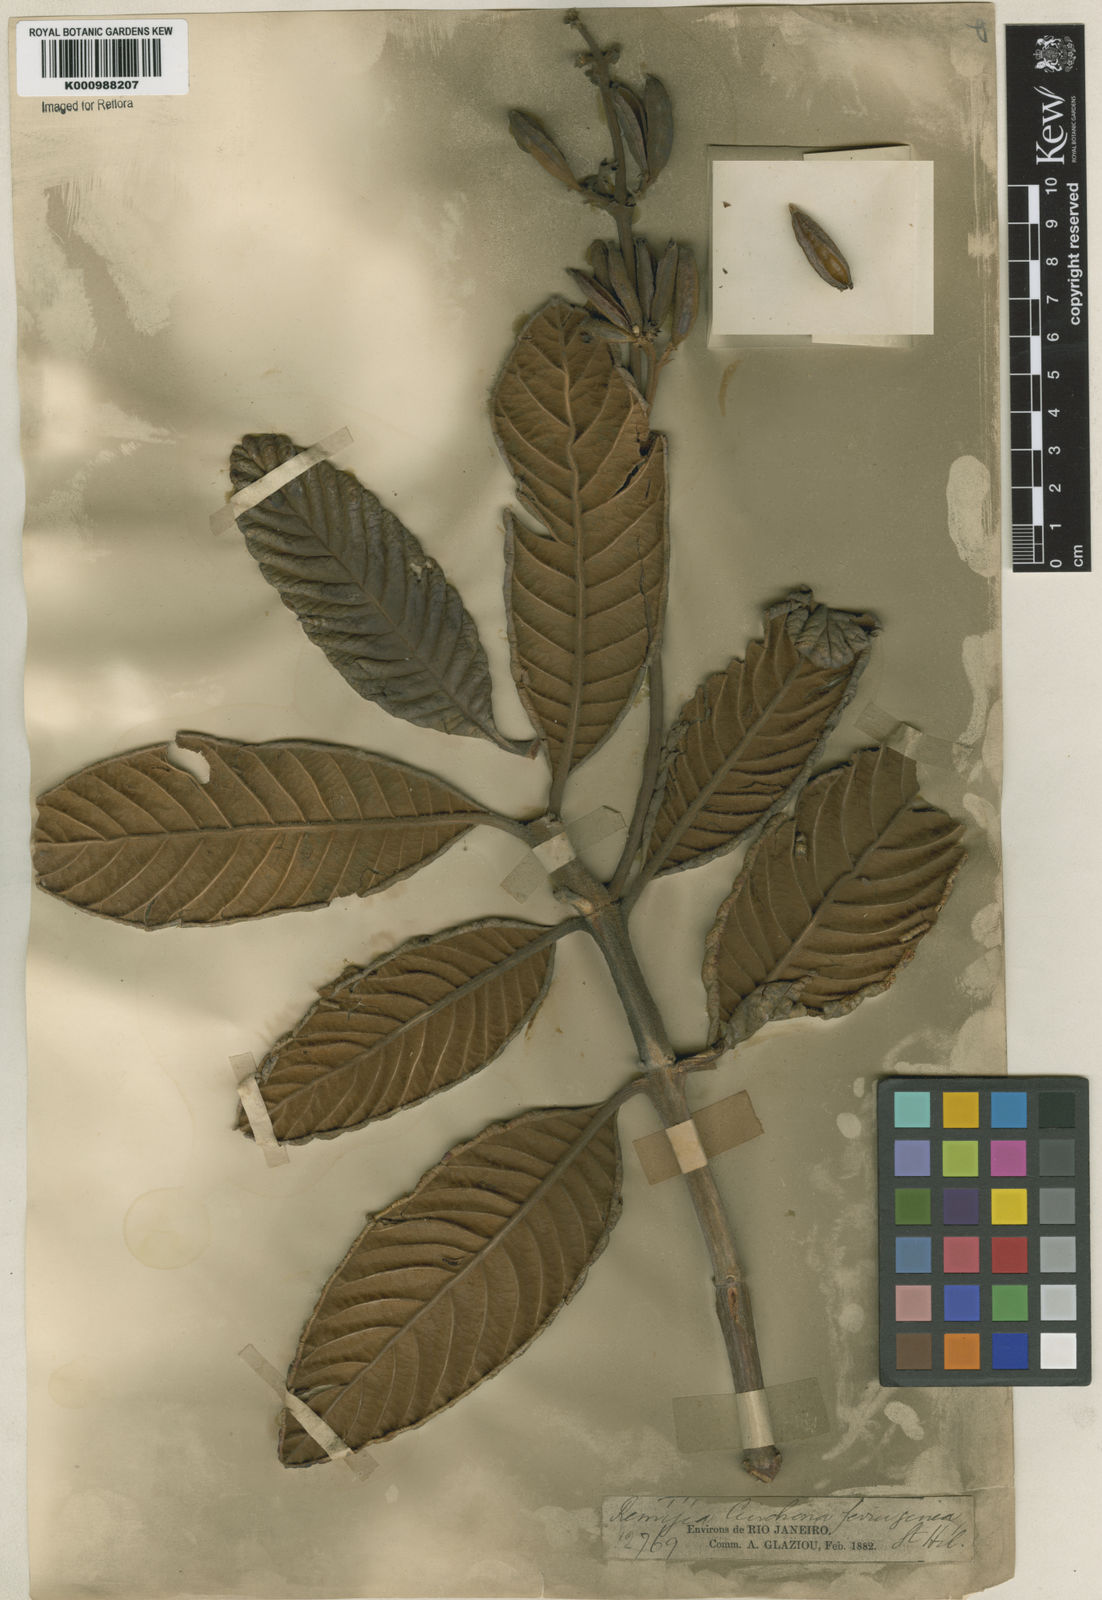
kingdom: Plantae
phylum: Tracheophyta
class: Magnoliopsida
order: Gentianales
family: Rubiaceae
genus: Remijia
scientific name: Remijia ferruginea
